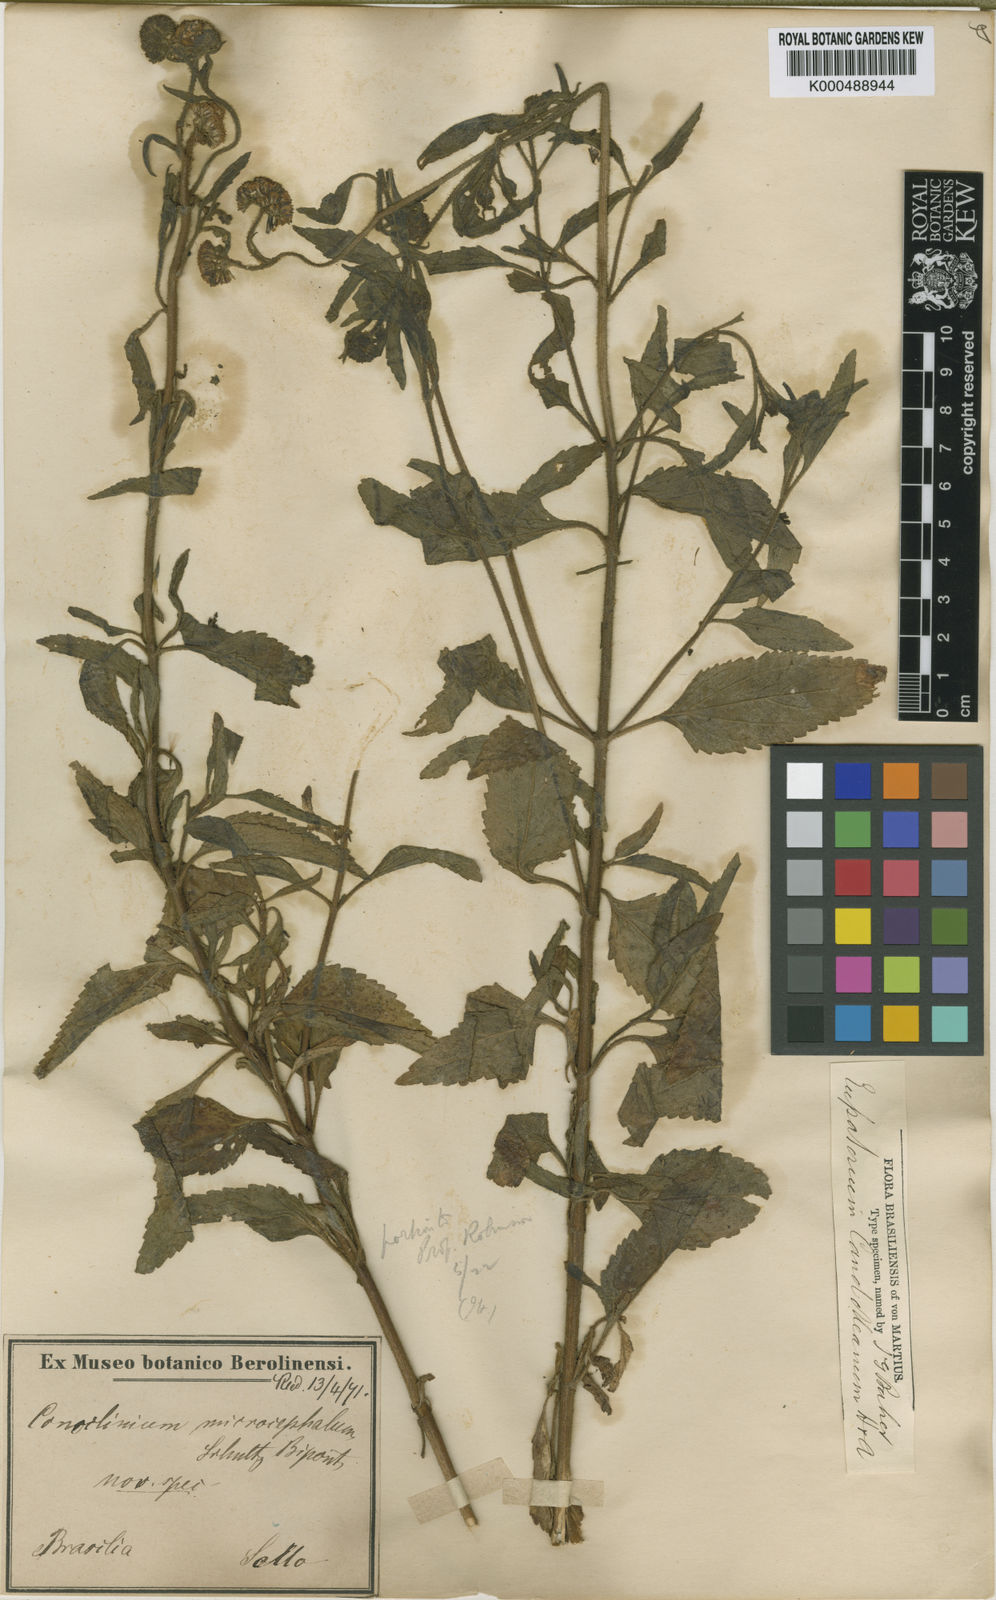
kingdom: Plantae
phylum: Tracheophyta
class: Magnoliopsida
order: Asterales
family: Asteraceae
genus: Barrosoa
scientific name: Barrosoa candolleana
